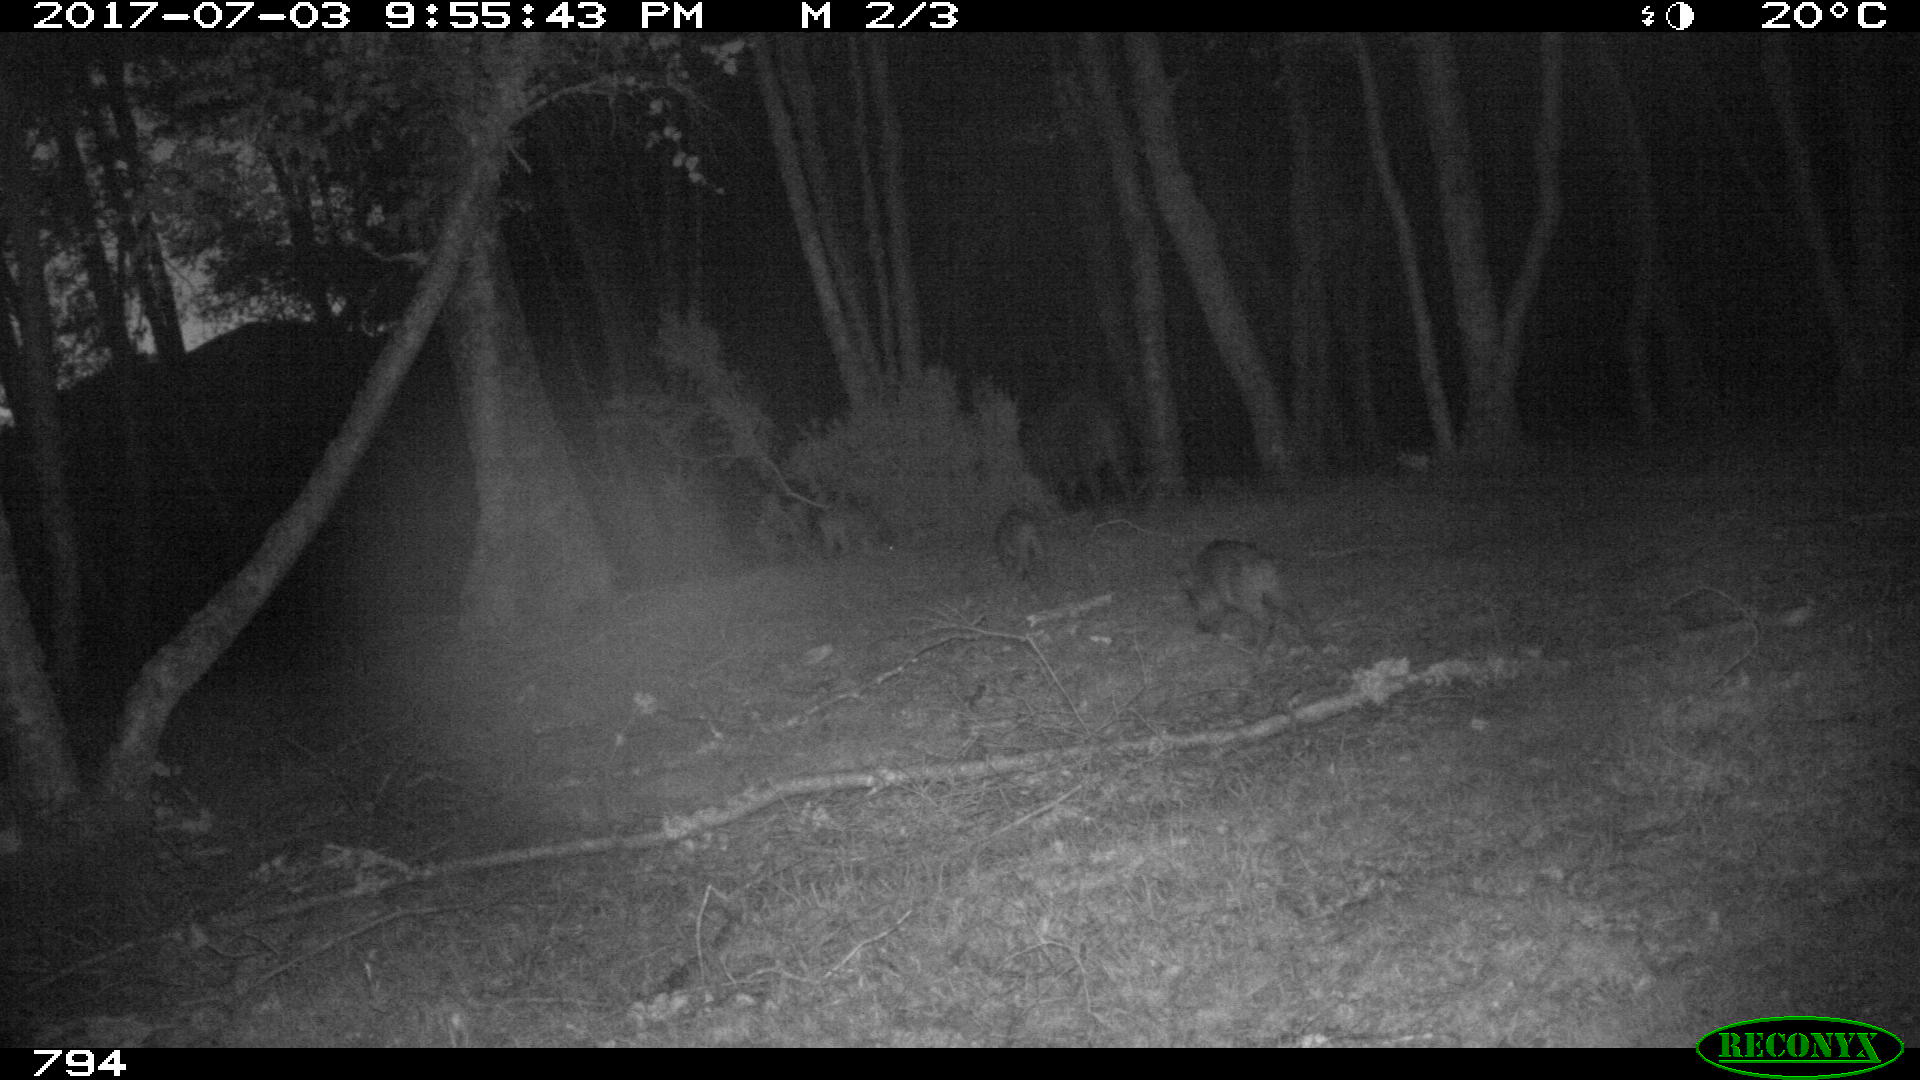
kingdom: Animalia
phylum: Chordata
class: Mammalia
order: Artiodactyla
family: Suidae
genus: Sus
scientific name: Sus scrofa
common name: Wild boar
